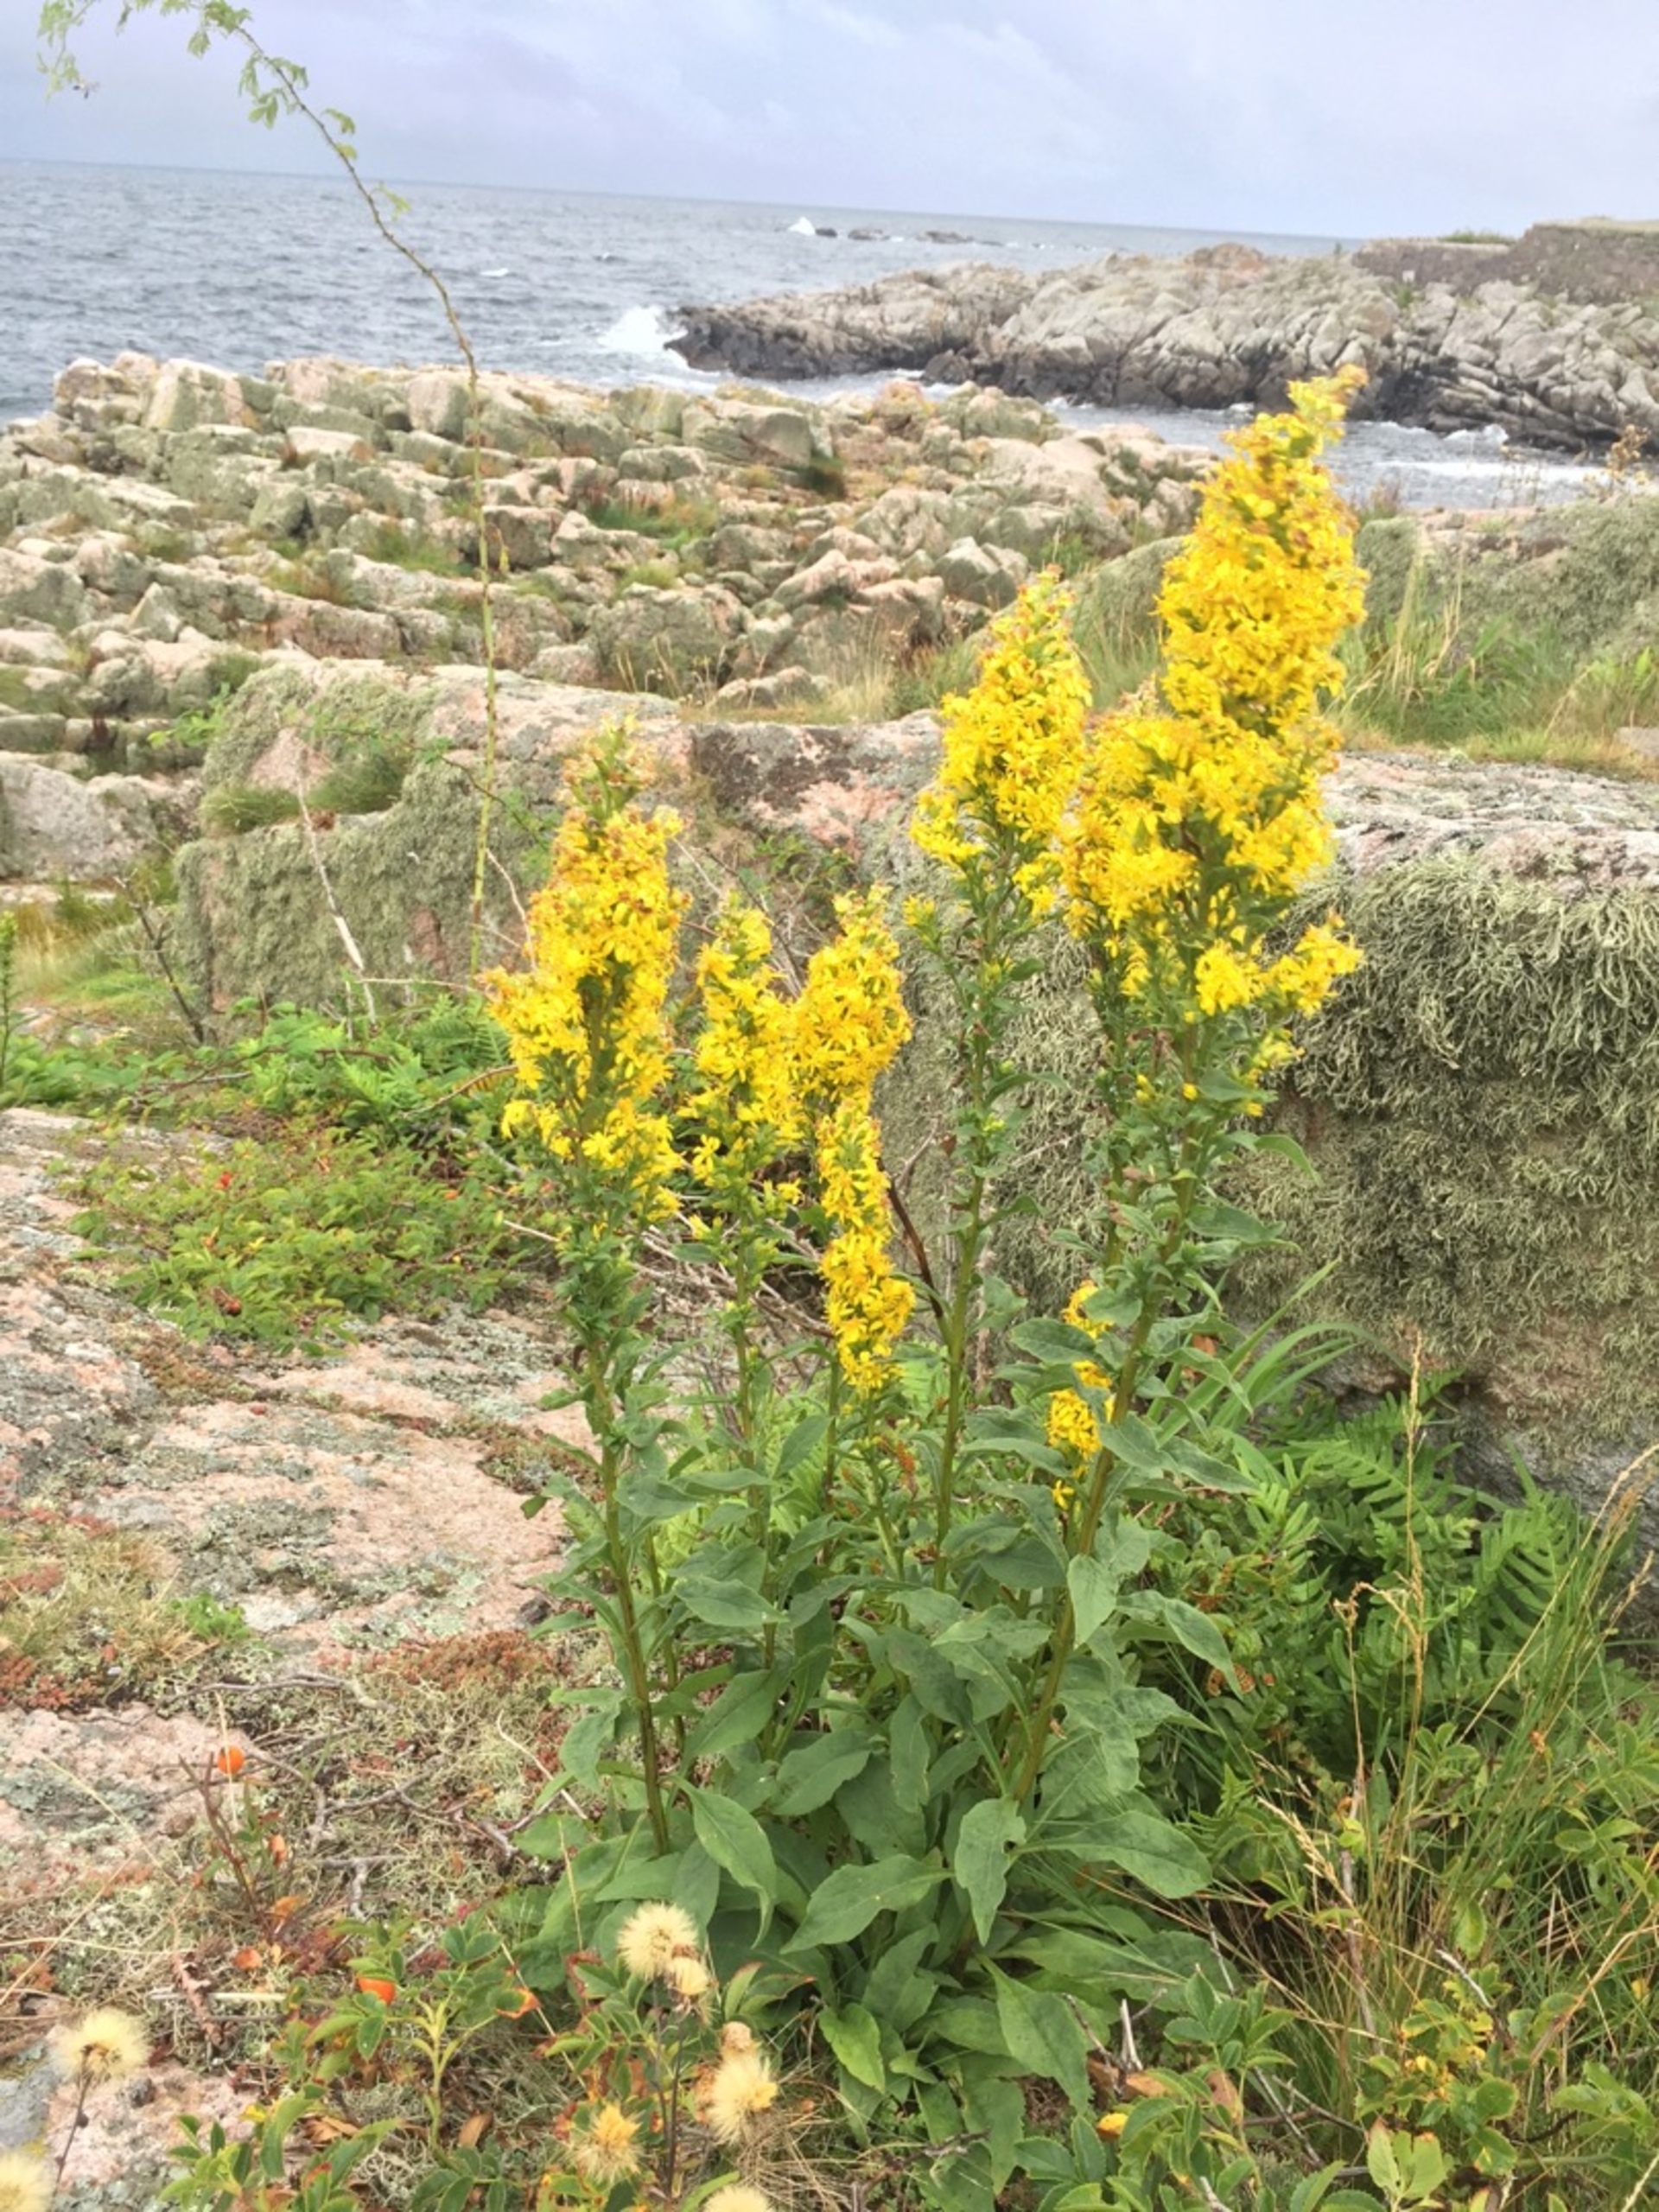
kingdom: Plantae
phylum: Tracheophyta
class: Magnoliopsida
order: Asterales
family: Asteraceae
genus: Solidago
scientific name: Solidago virgaurea
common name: Almindelig gyldenris
